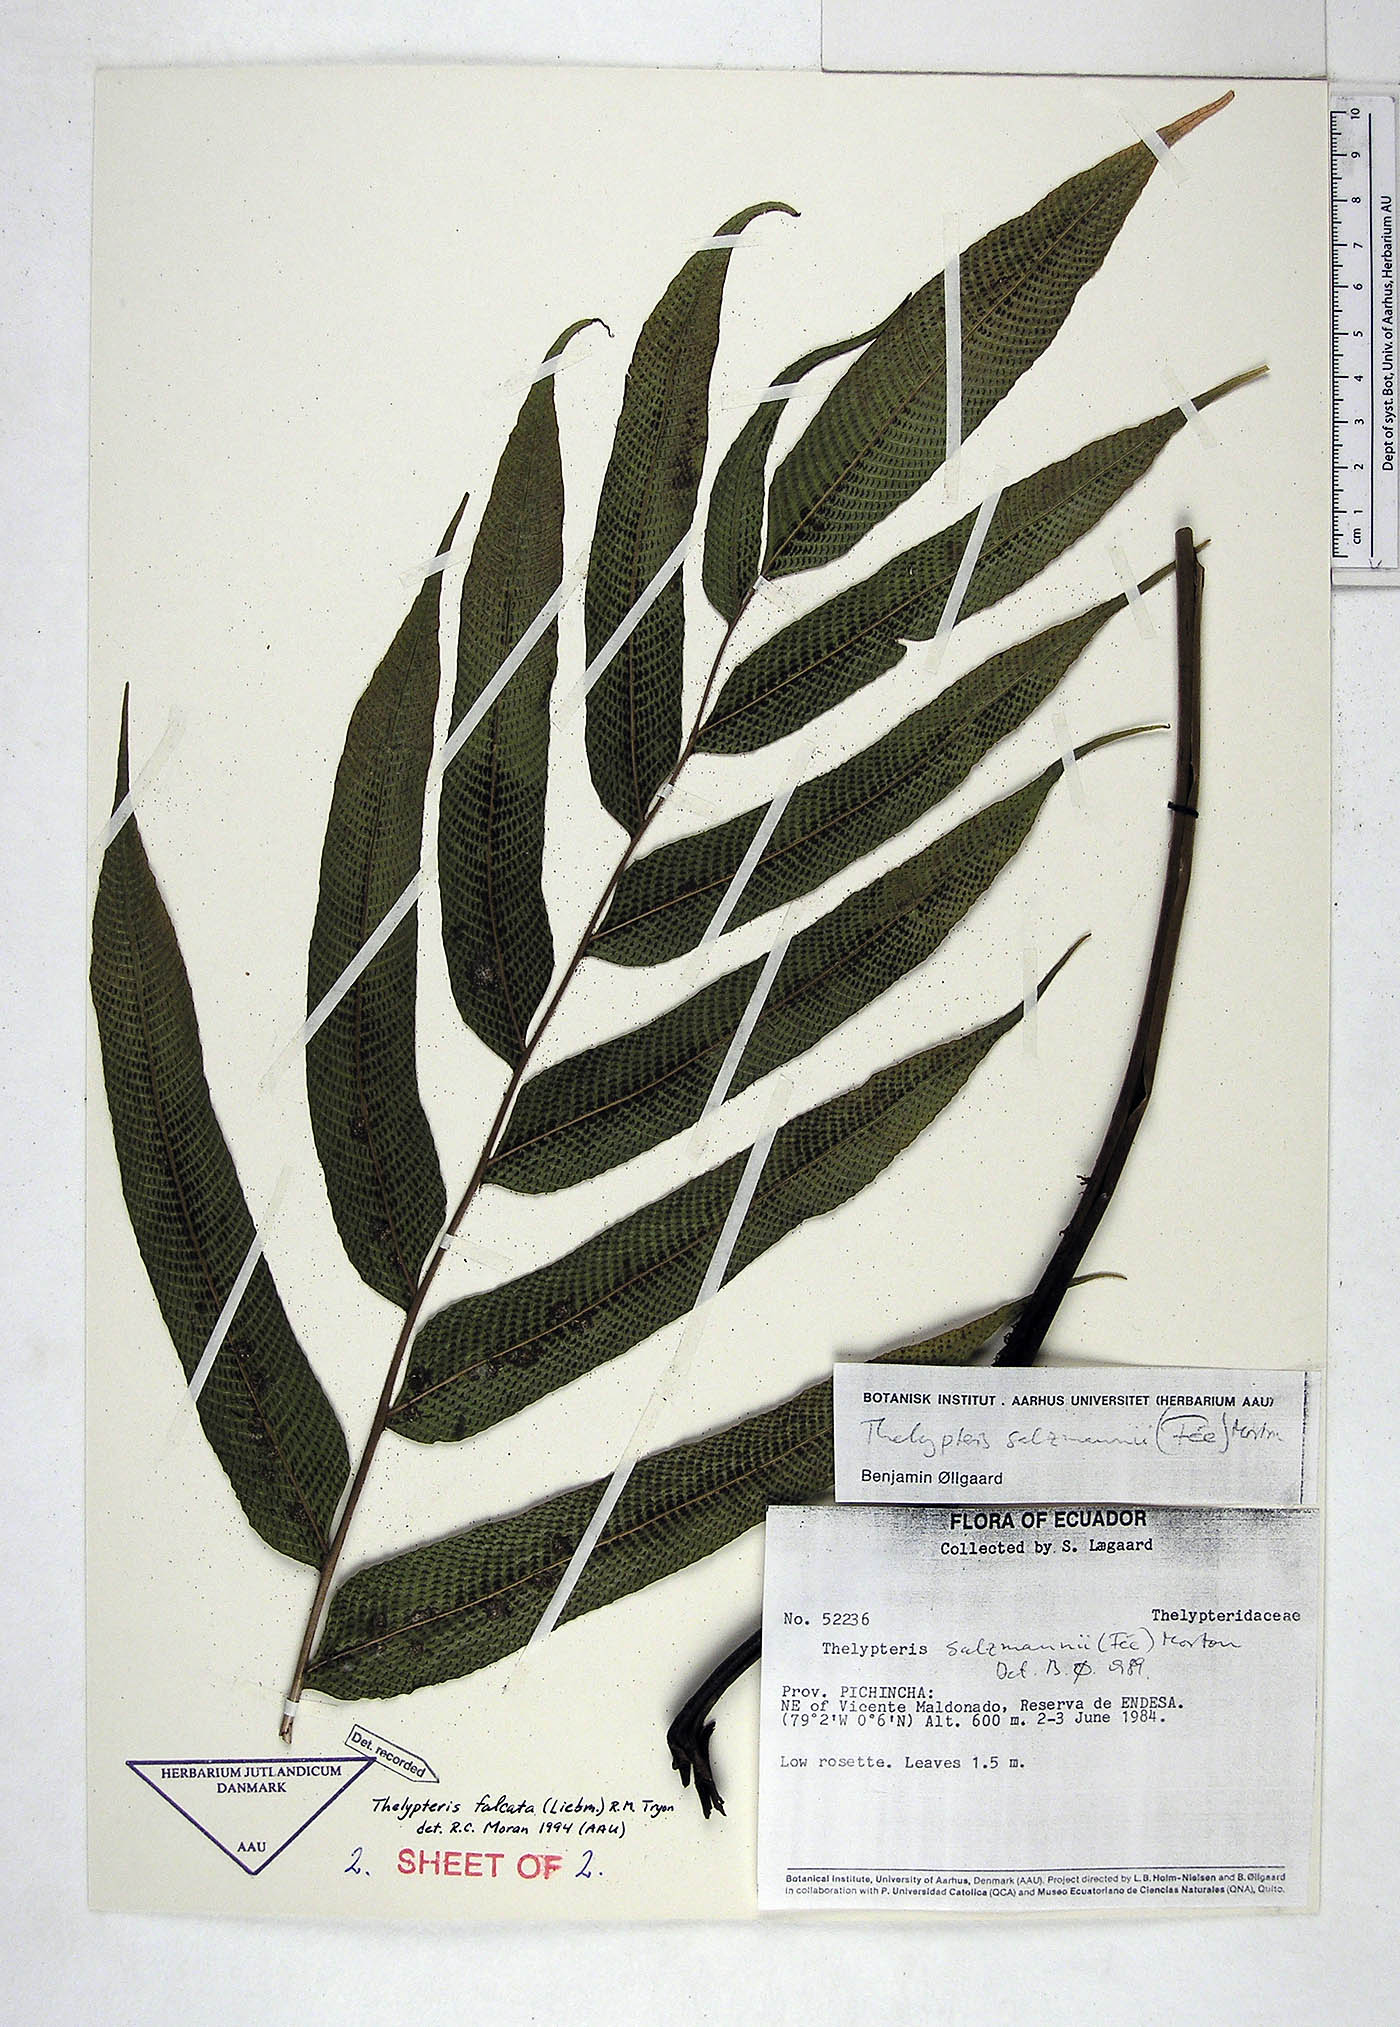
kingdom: Plantae
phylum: Tracheophyta
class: Polypodiopsida
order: Polypodiales
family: Thelypteridaceae
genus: Meniscium
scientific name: Meniscium falcatum
